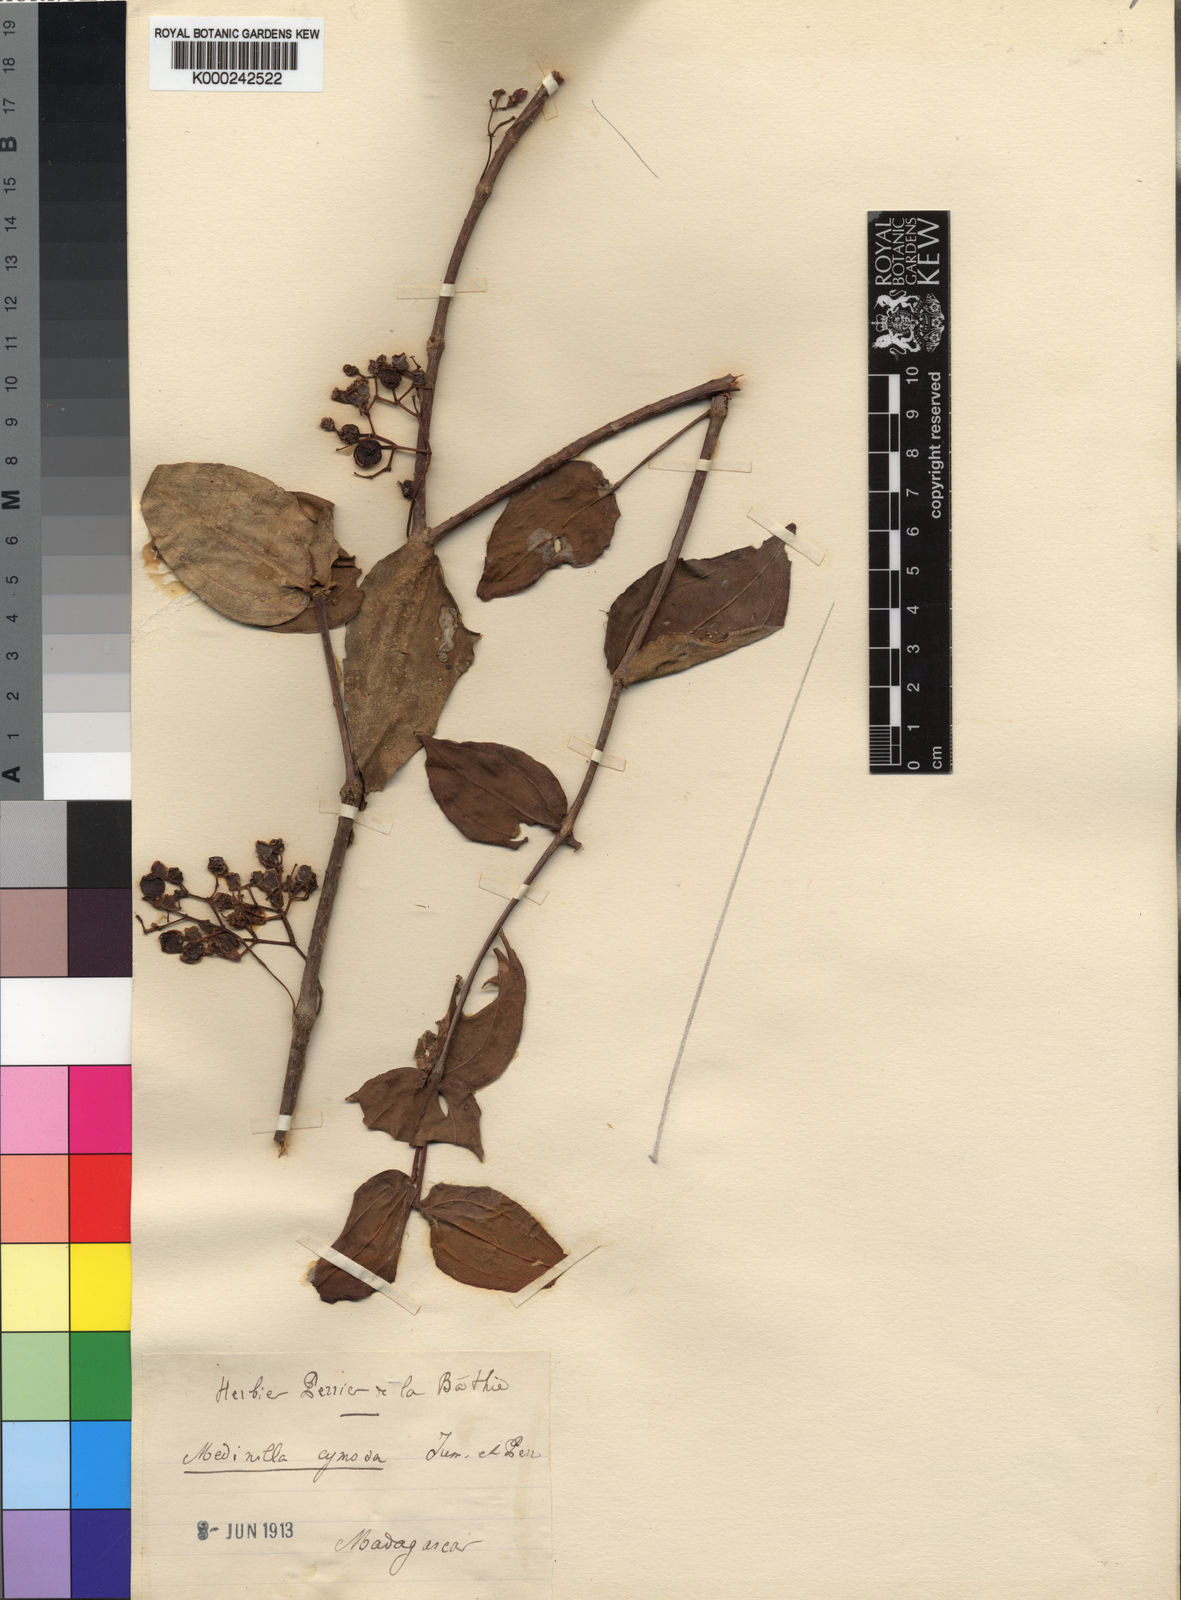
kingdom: Plantae
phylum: Tracheophyta
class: Magnoliopsida
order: Myrtales
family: Melastomataceae
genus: Medinilla
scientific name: Medinilla cymosa
